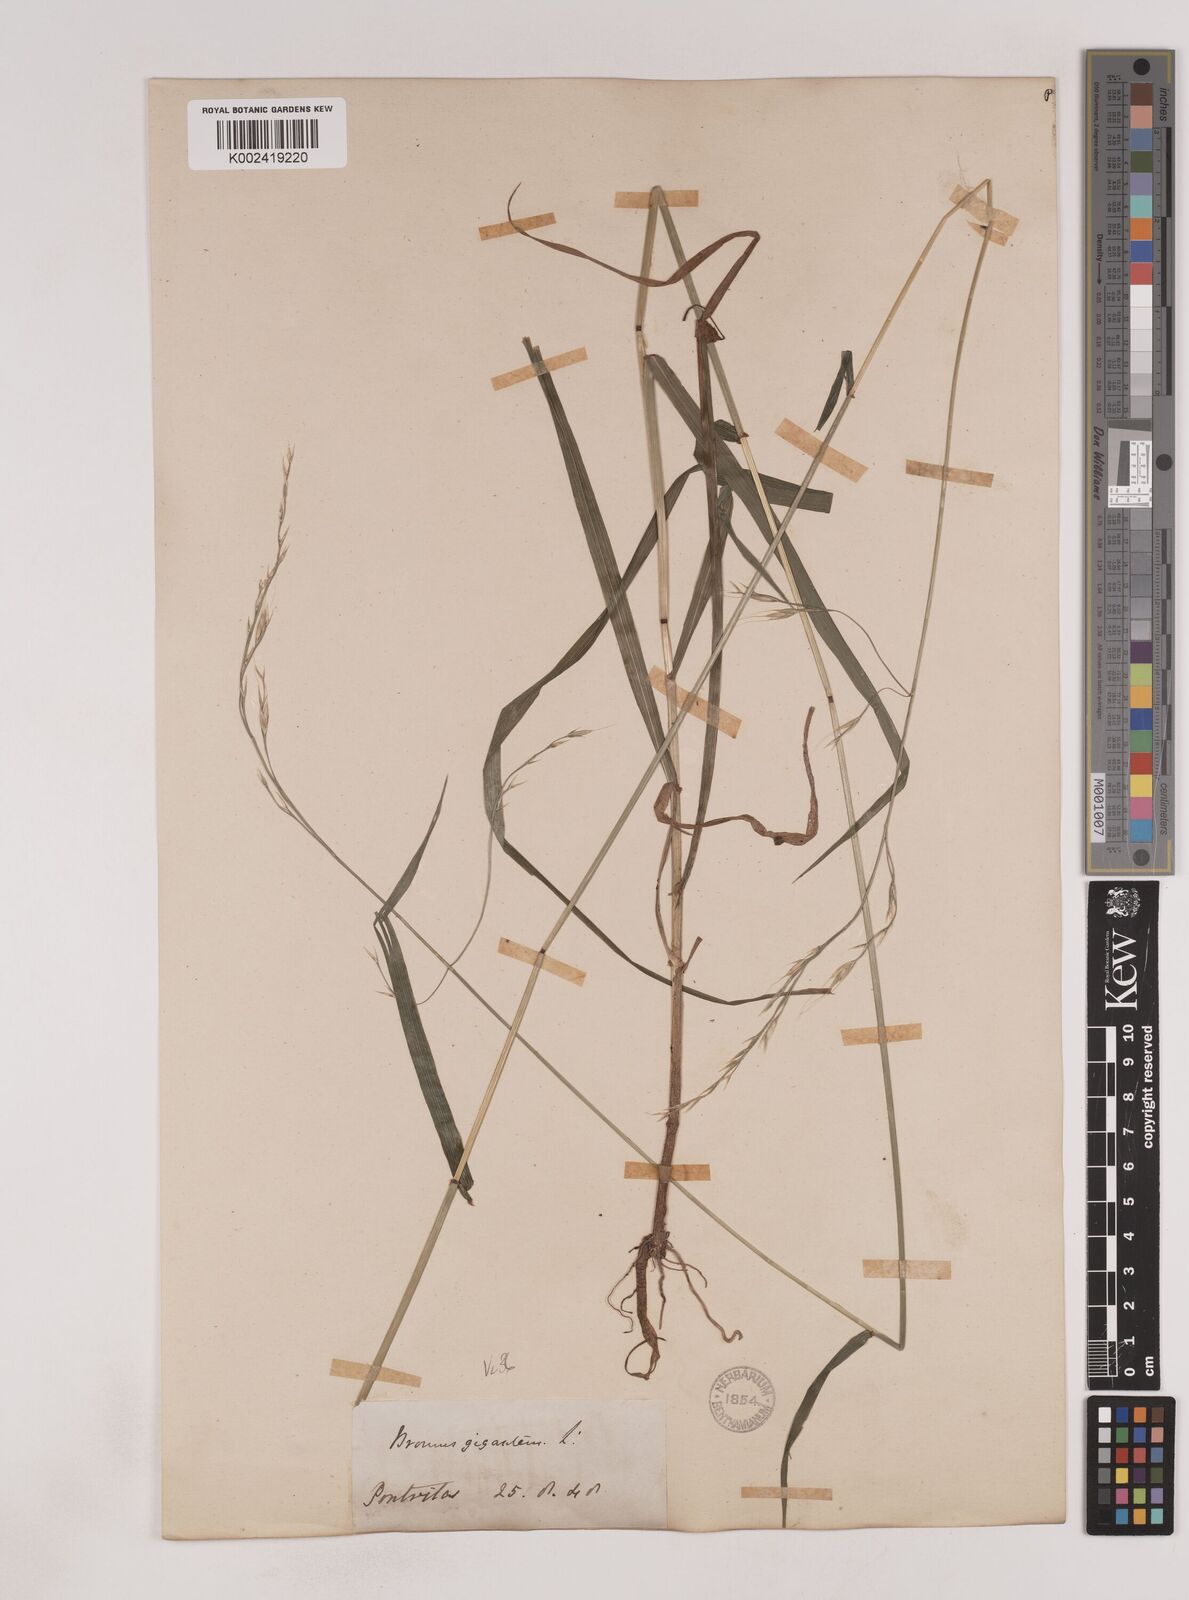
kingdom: Plantae
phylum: Tracheophyta
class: Liliopsida
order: Poales
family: Poaceae
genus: Lolium
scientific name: Lolium giganteum
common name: Giant fescue
